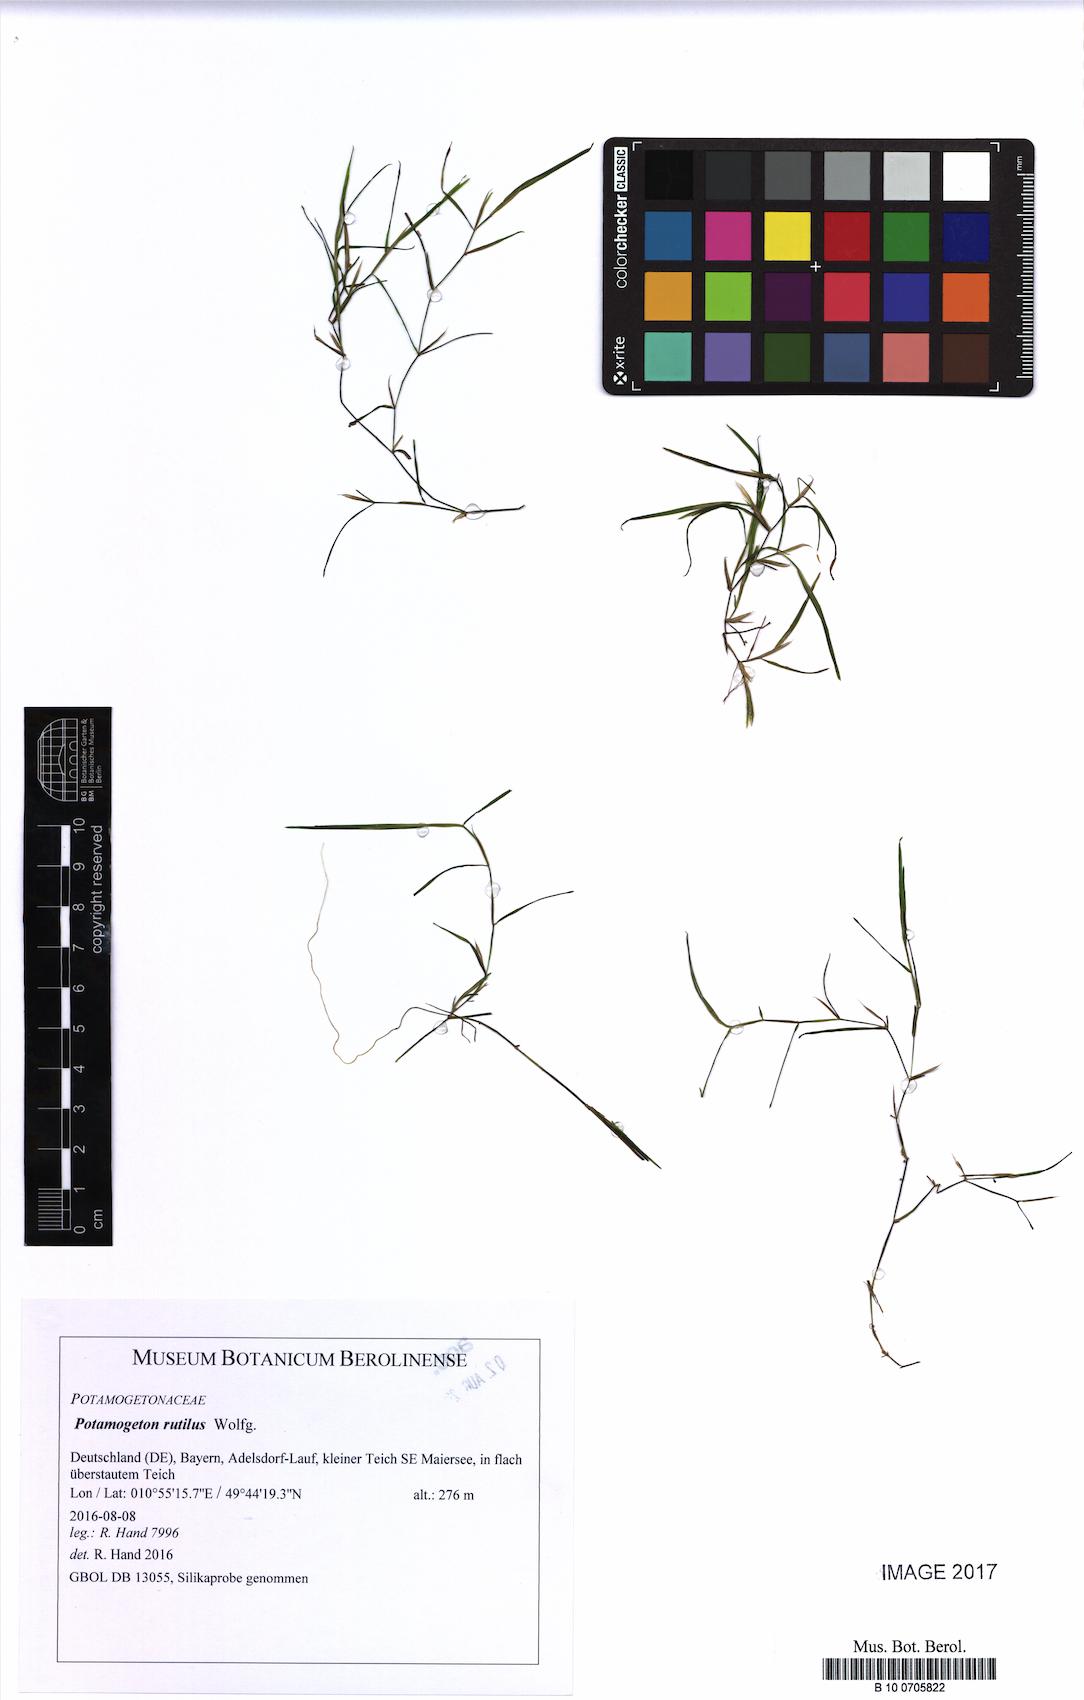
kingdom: Plantae
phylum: Tracheophyta
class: Liliopsida
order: Alismatales
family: Potamogetonaceae
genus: Potamogeton
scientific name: Potamogeton rutilus
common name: Shetland pondweed
